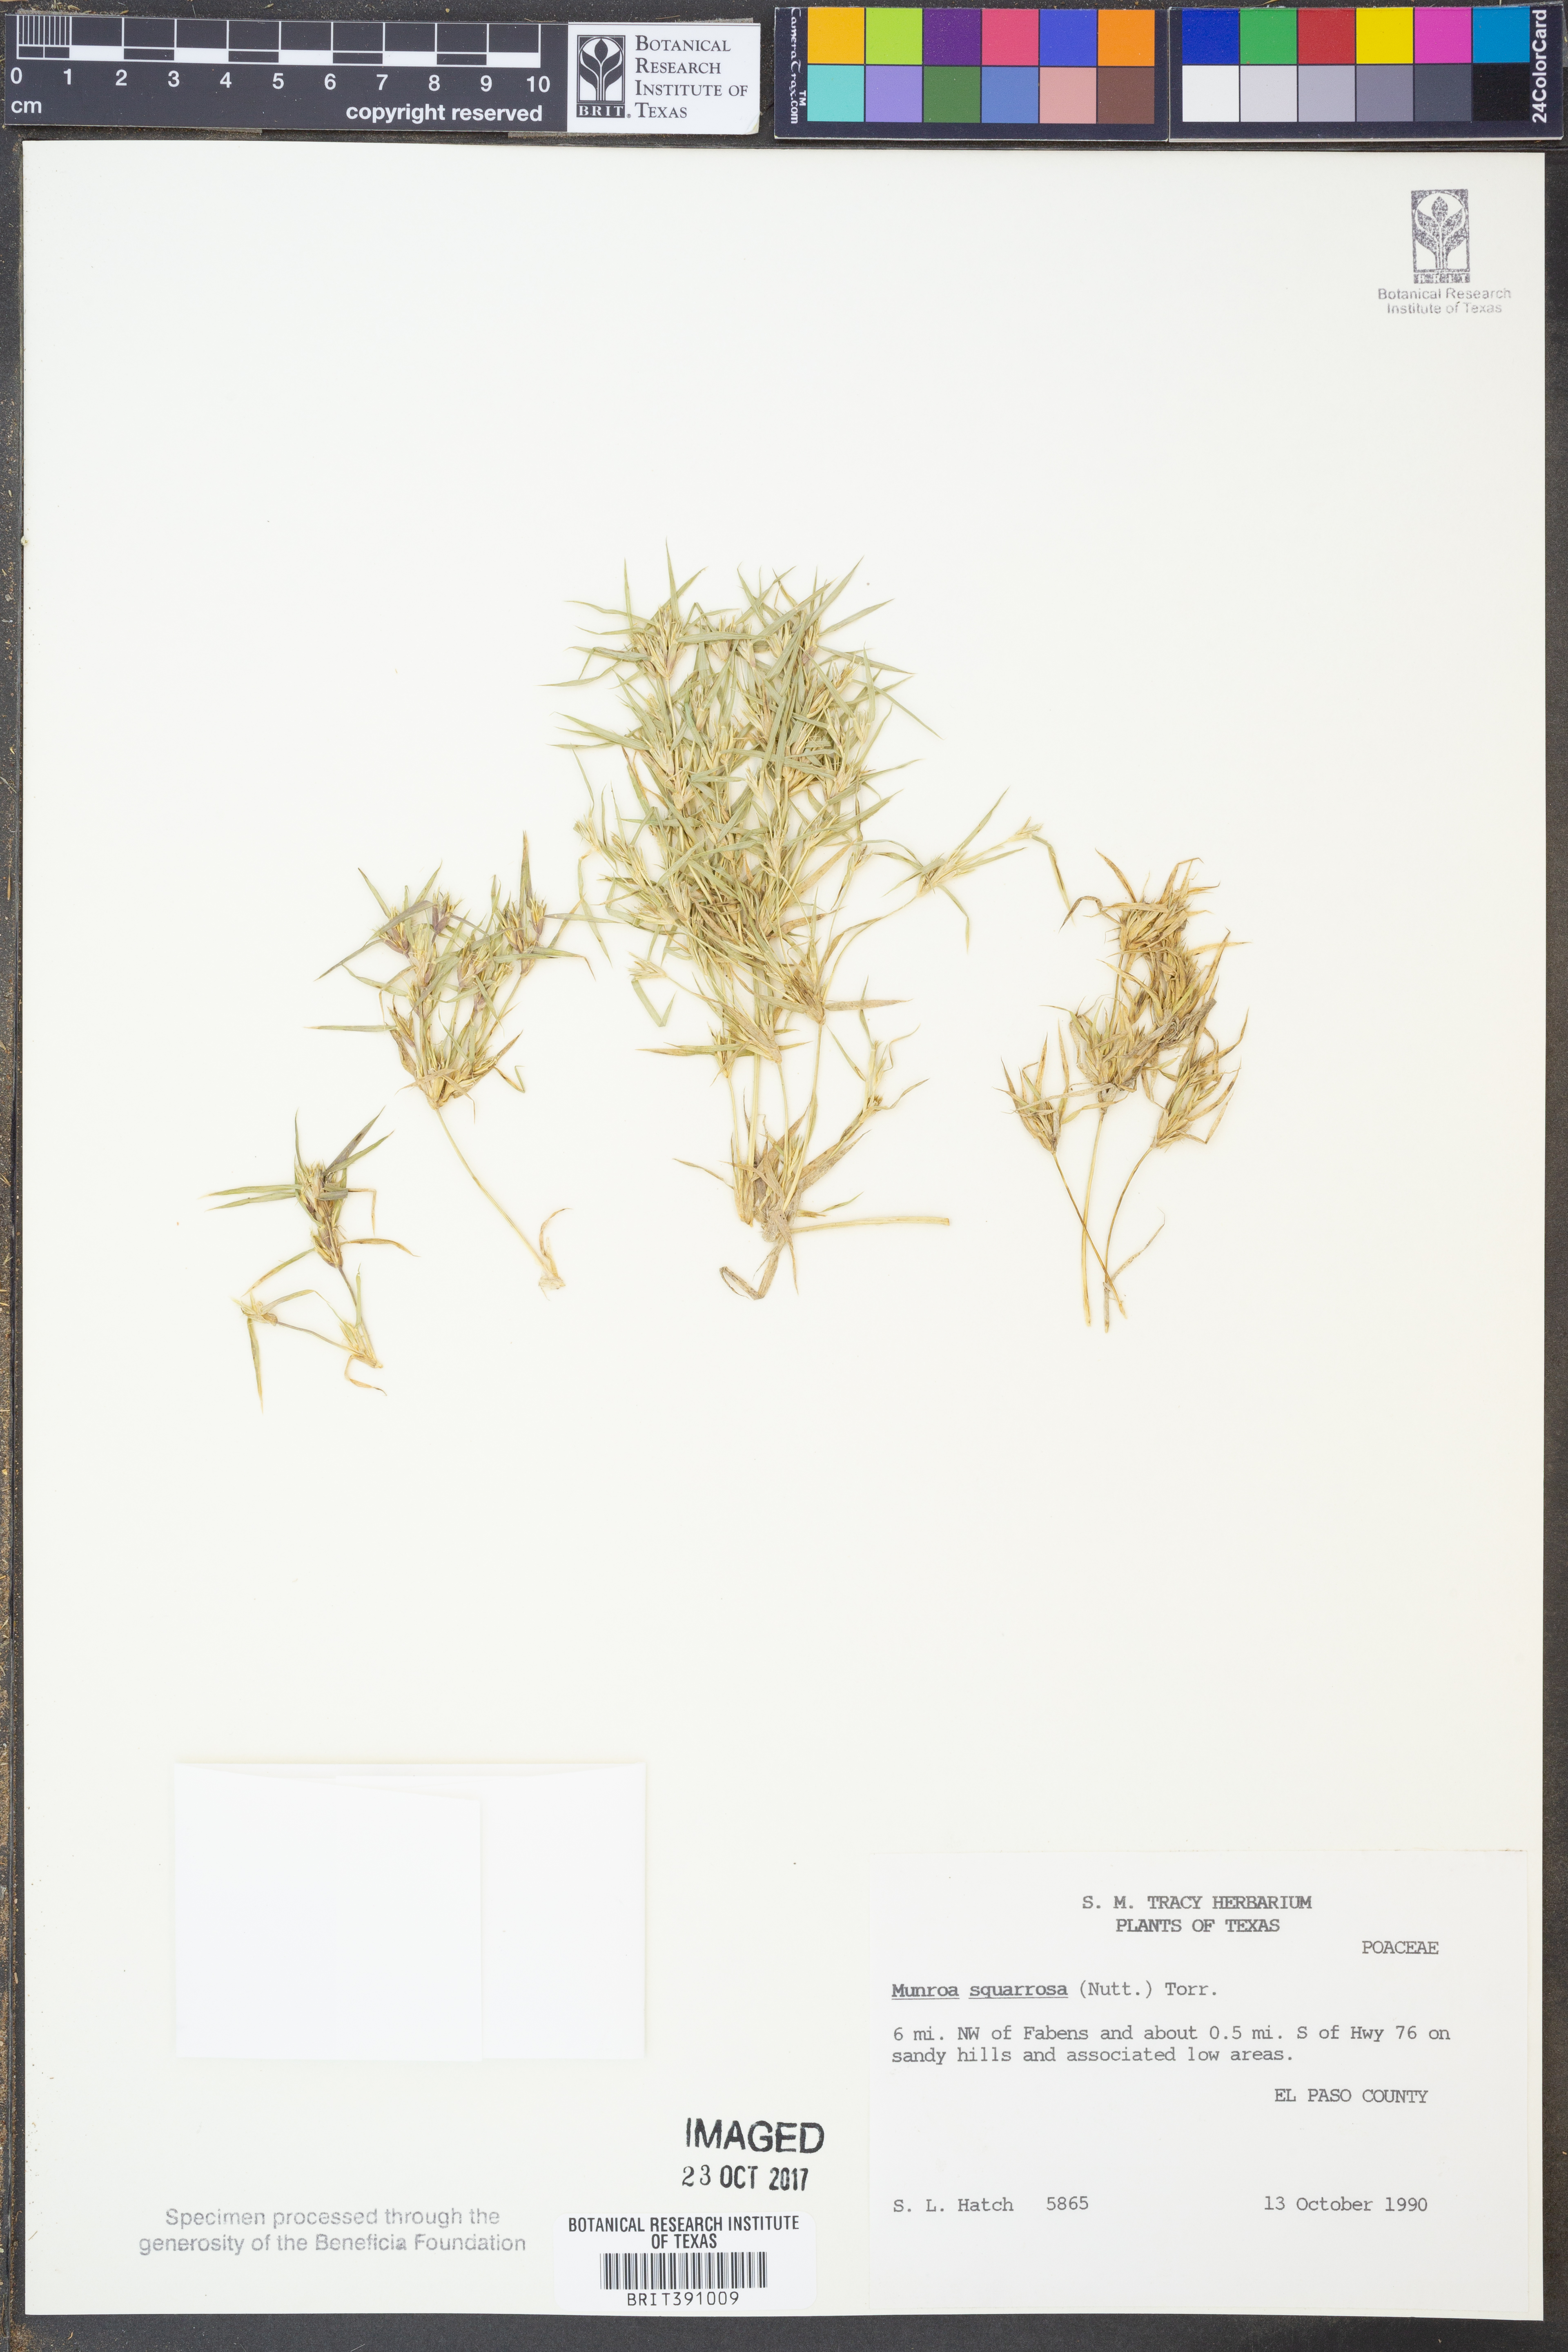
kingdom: Plantae
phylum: Tracheophyta
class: Liliopsida
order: Poales
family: Poaceae
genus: Munroa
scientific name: Munroa squarrosa
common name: False buffalo grass
